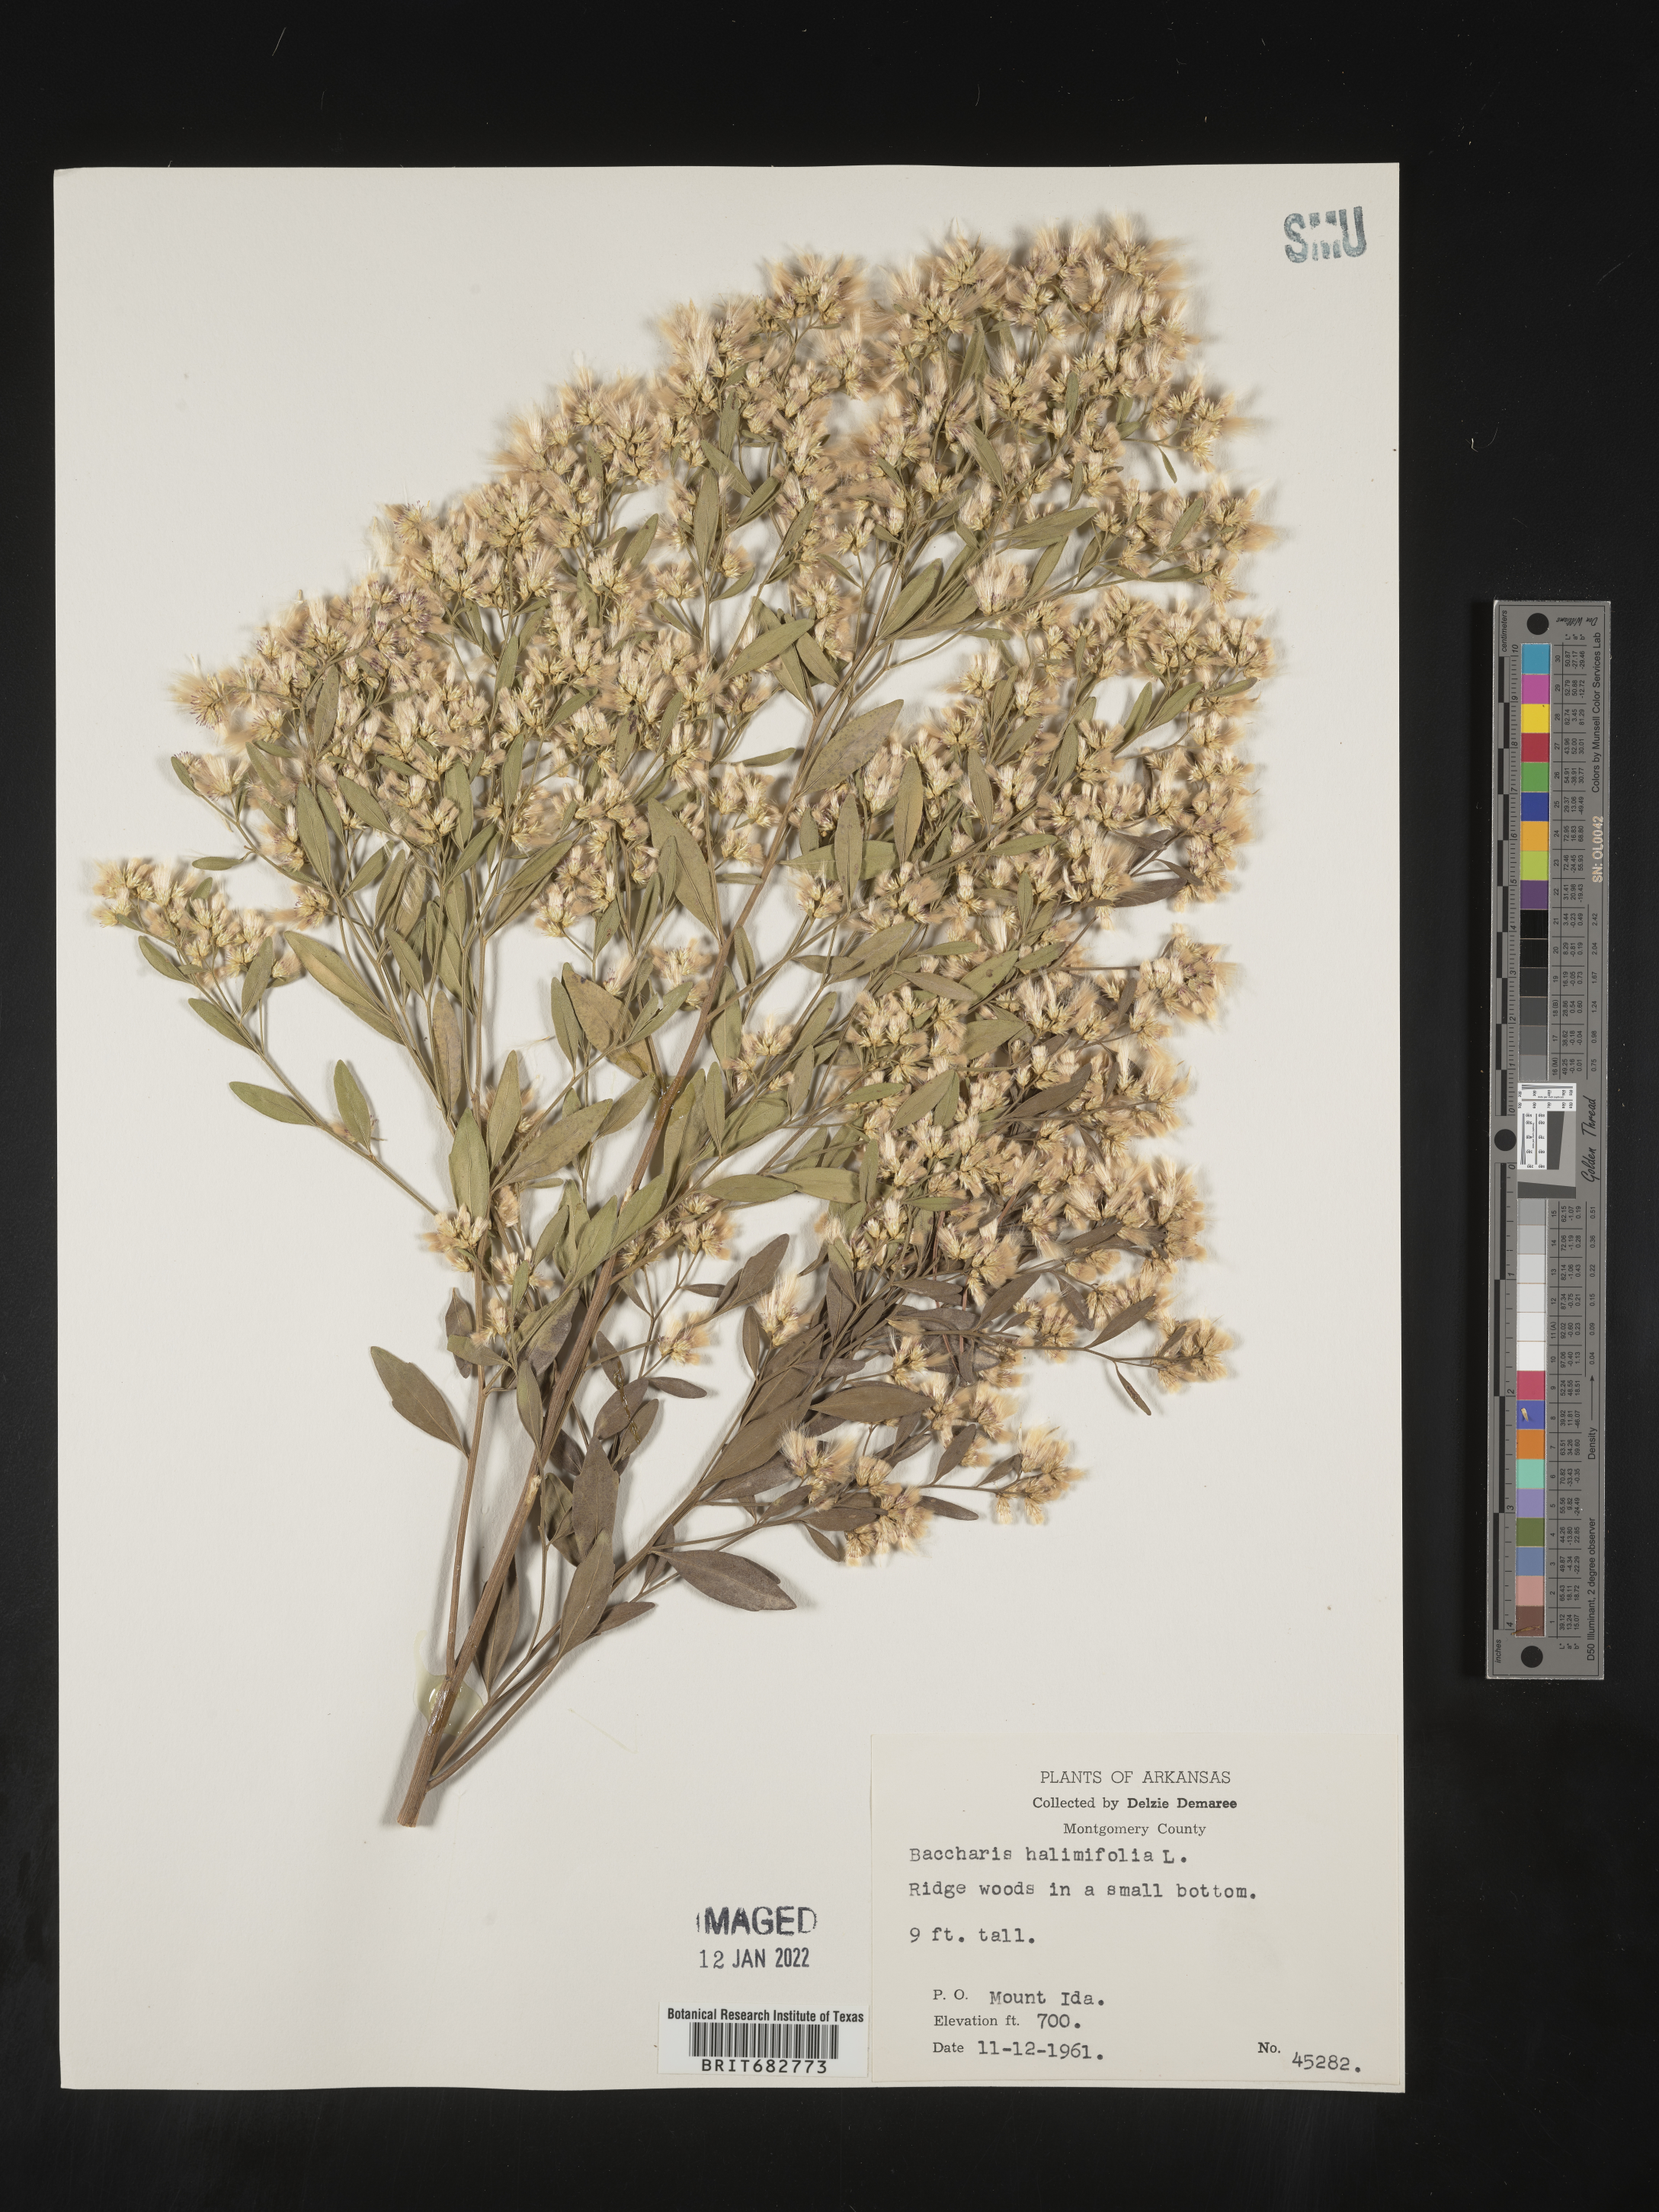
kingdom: Plantae
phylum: Tracheophyta
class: Magnoliopsida
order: Asterales
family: Asteraceae
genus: Nidorella
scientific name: Nidorella ivifolia
